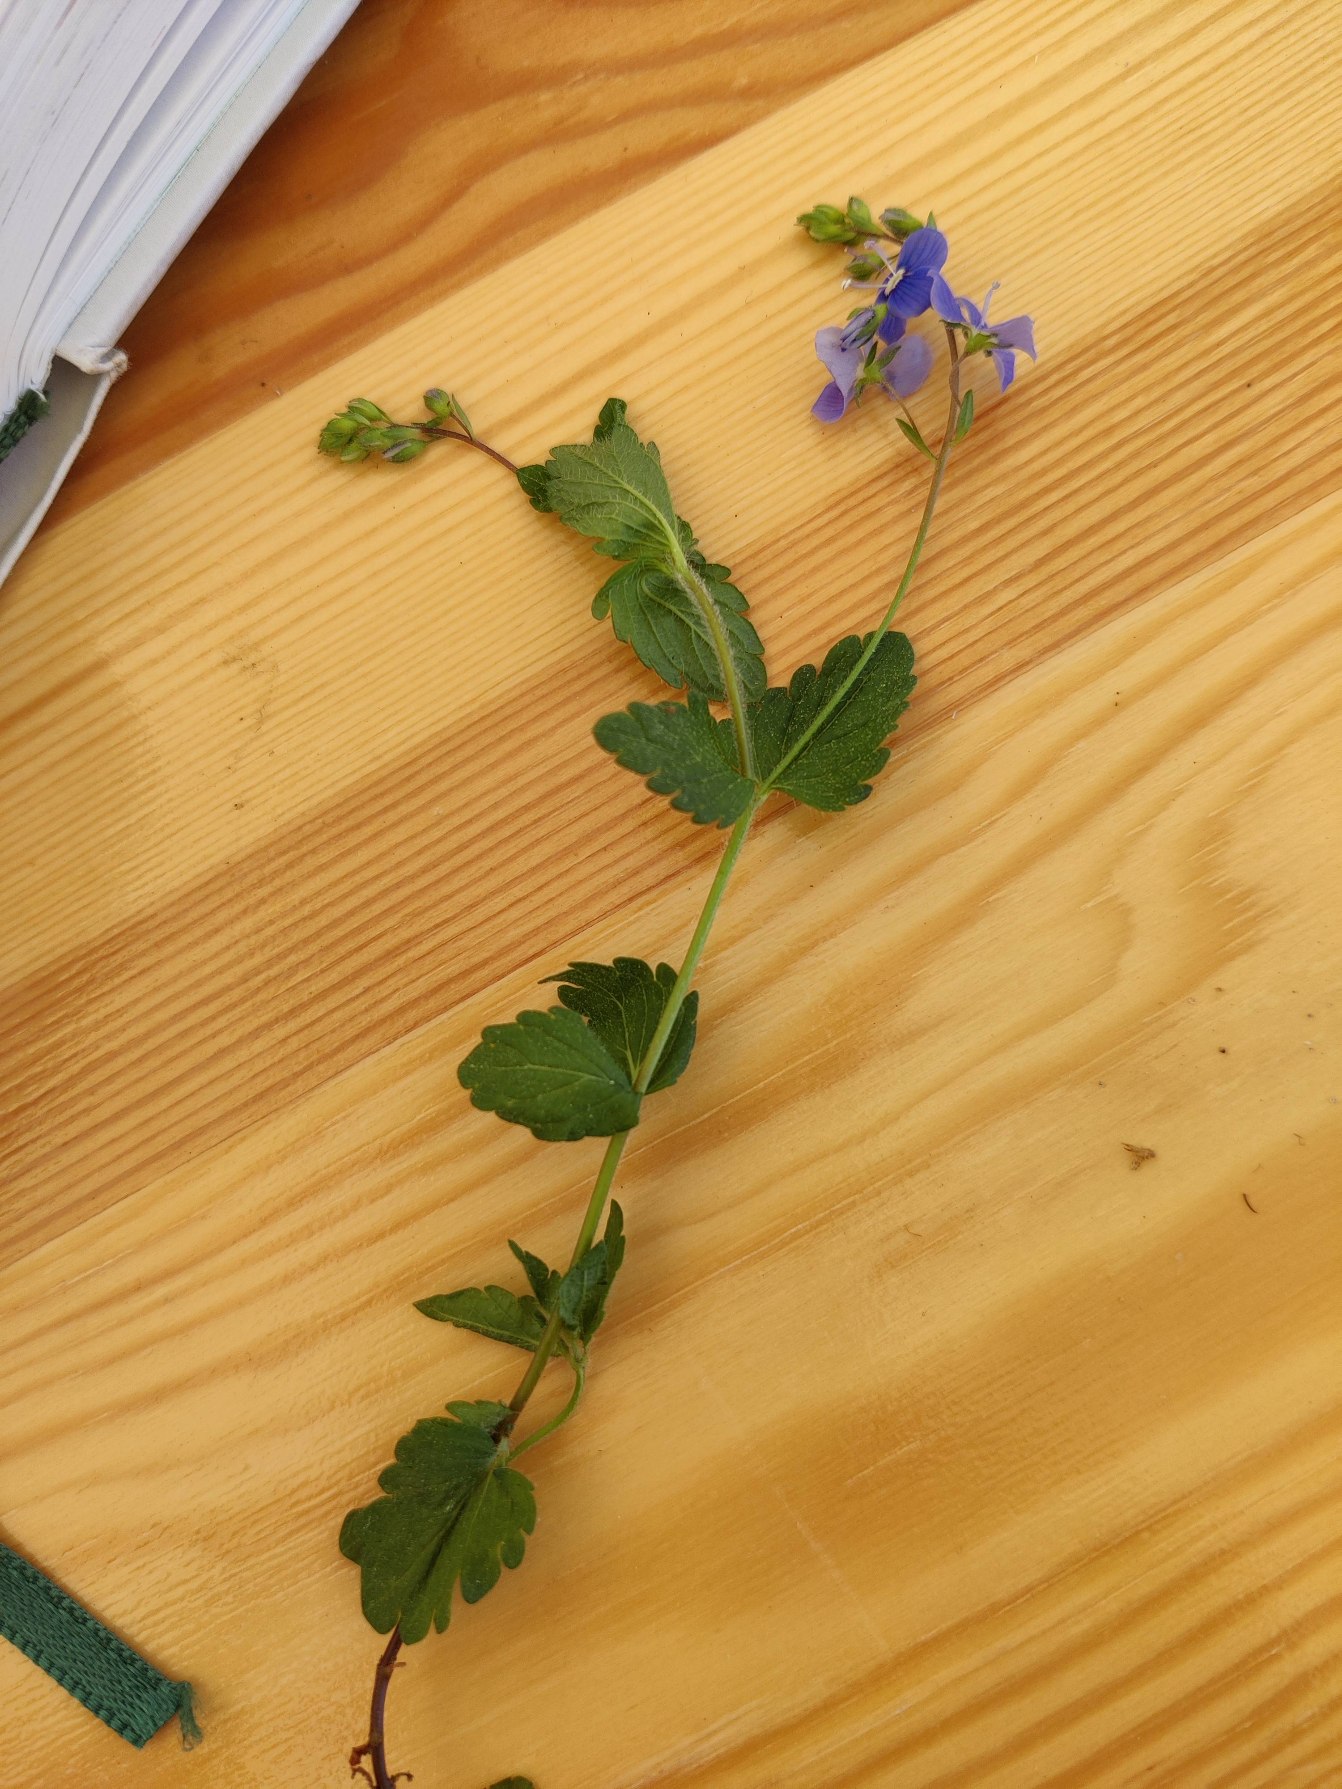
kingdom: Plantae
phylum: Tracheophyta
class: Magnoliopsida
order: Lamiales
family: Plantaginaceae
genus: Veronica
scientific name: Veronica chamaedrys
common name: Tveskægget ærenpris
